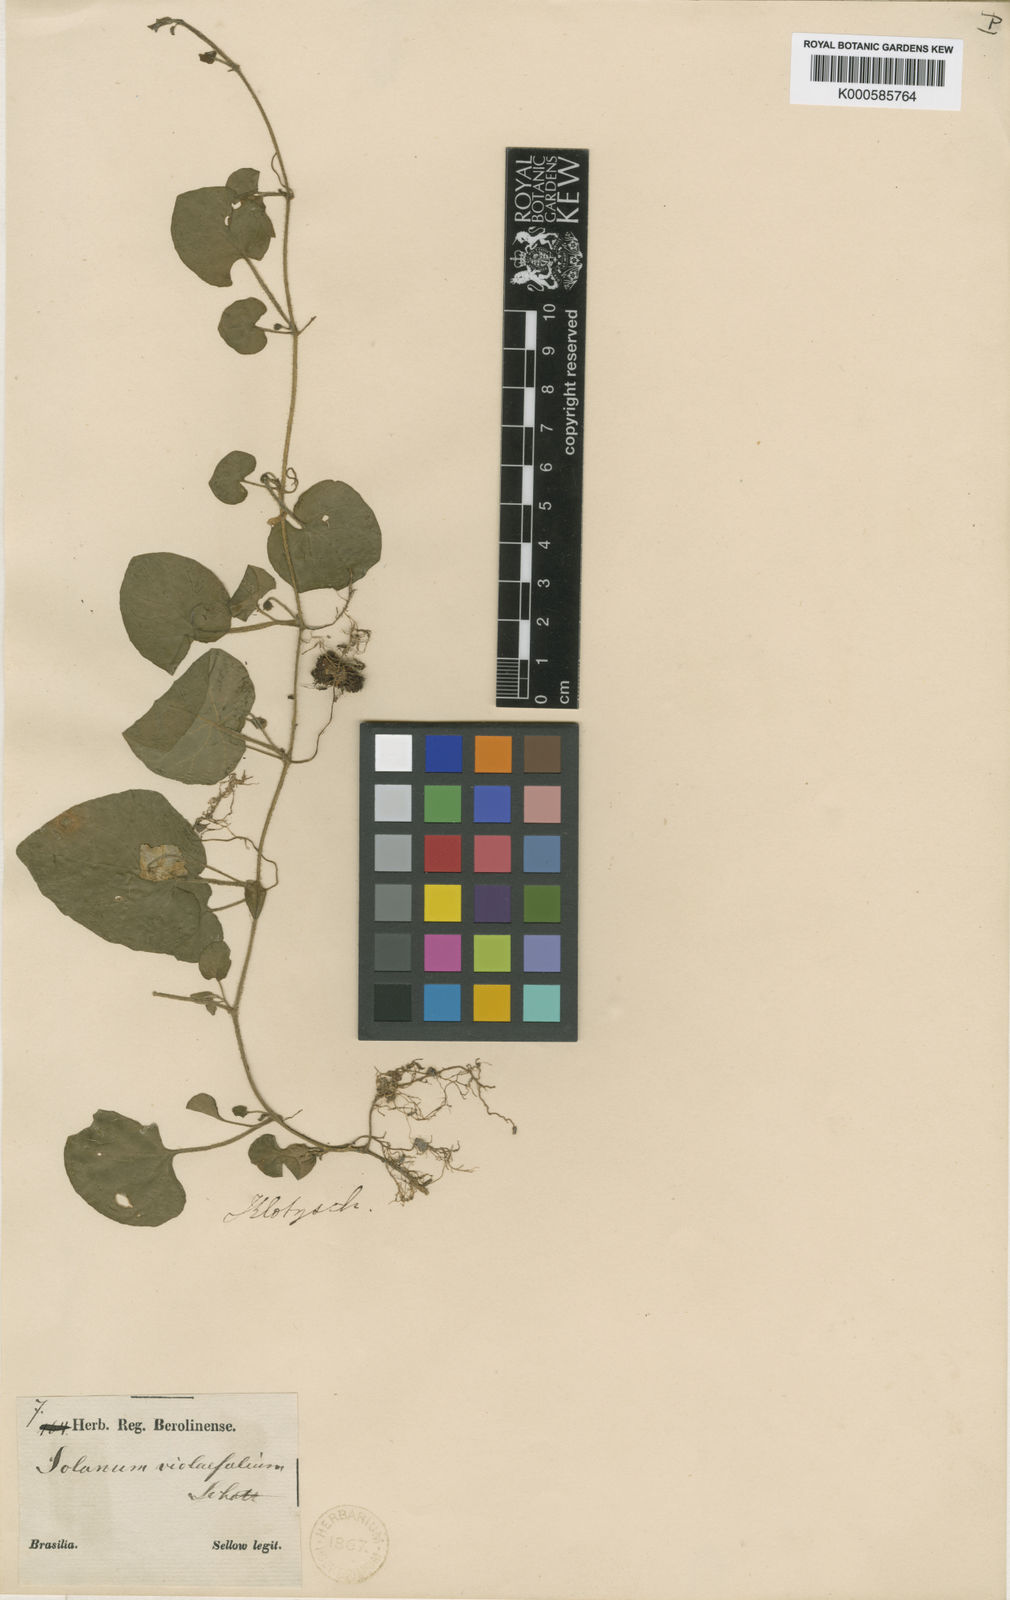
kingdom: Plantae
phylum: Tracheophyta
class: Magnoliopsida
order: Solanales
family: Solanaceae
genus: Lycianthes
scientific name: Lycianthes repens
